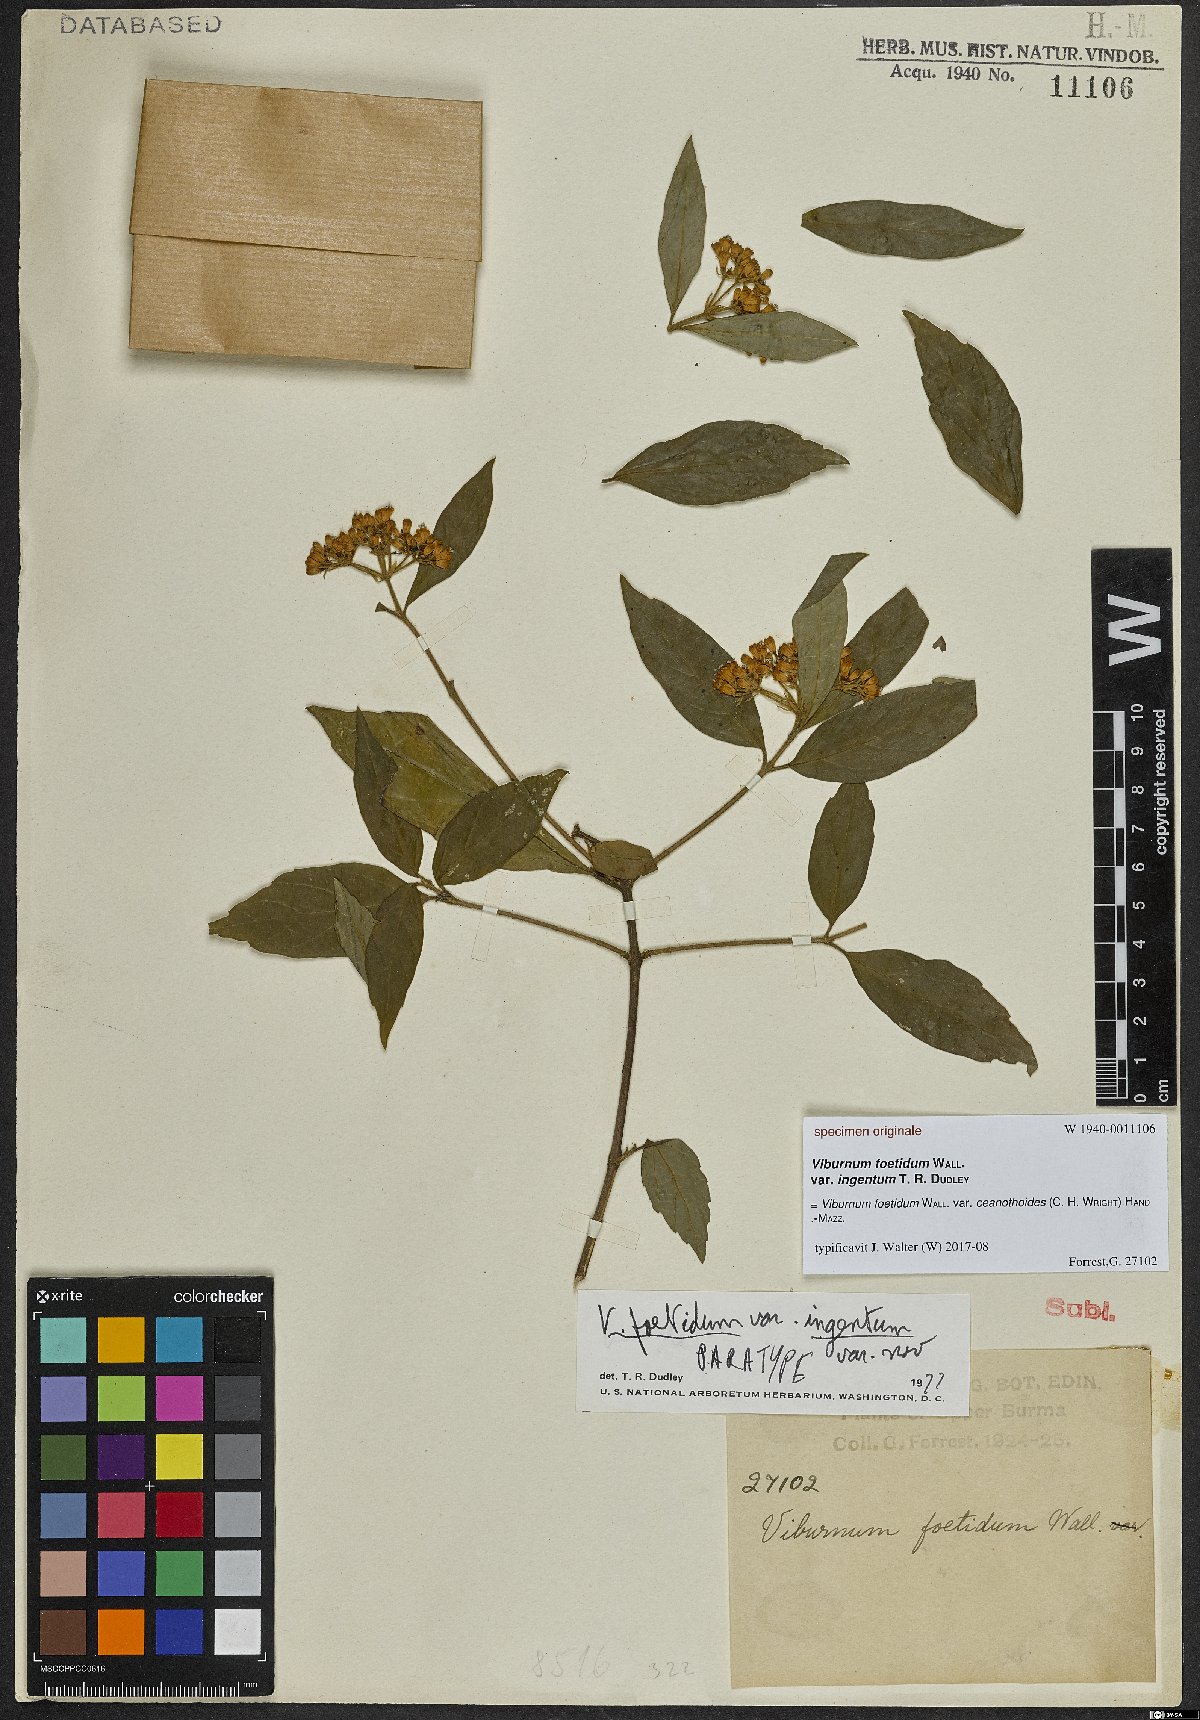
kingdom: Plantae
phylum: Tracheophyta
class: Magnoliopsida
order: Dipsacales
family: Viburnaceae
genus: Viburnum
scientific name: Viburnum foetidum
